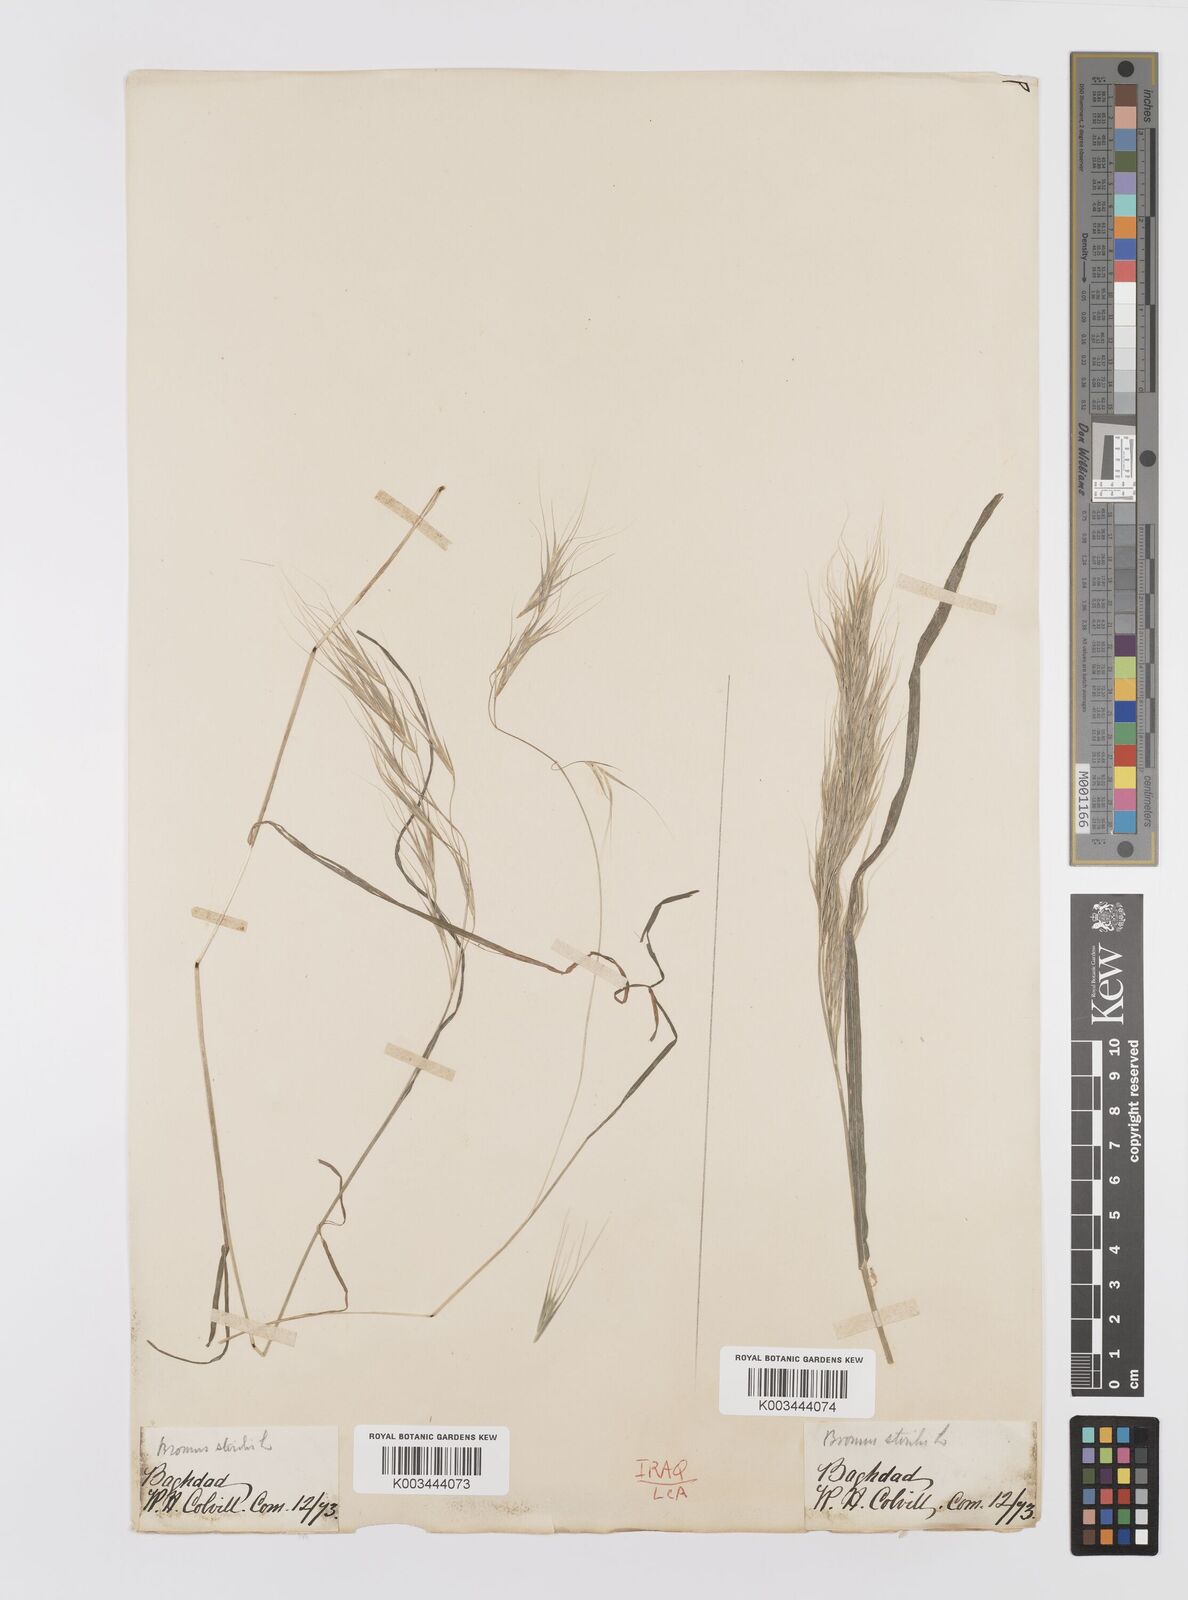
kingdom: Plantae
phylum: Tracheophyta
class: Liliopsida
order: Poales
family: Poaceae
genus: Bromus
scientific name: Bromus sterilis
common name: Poverty brome
